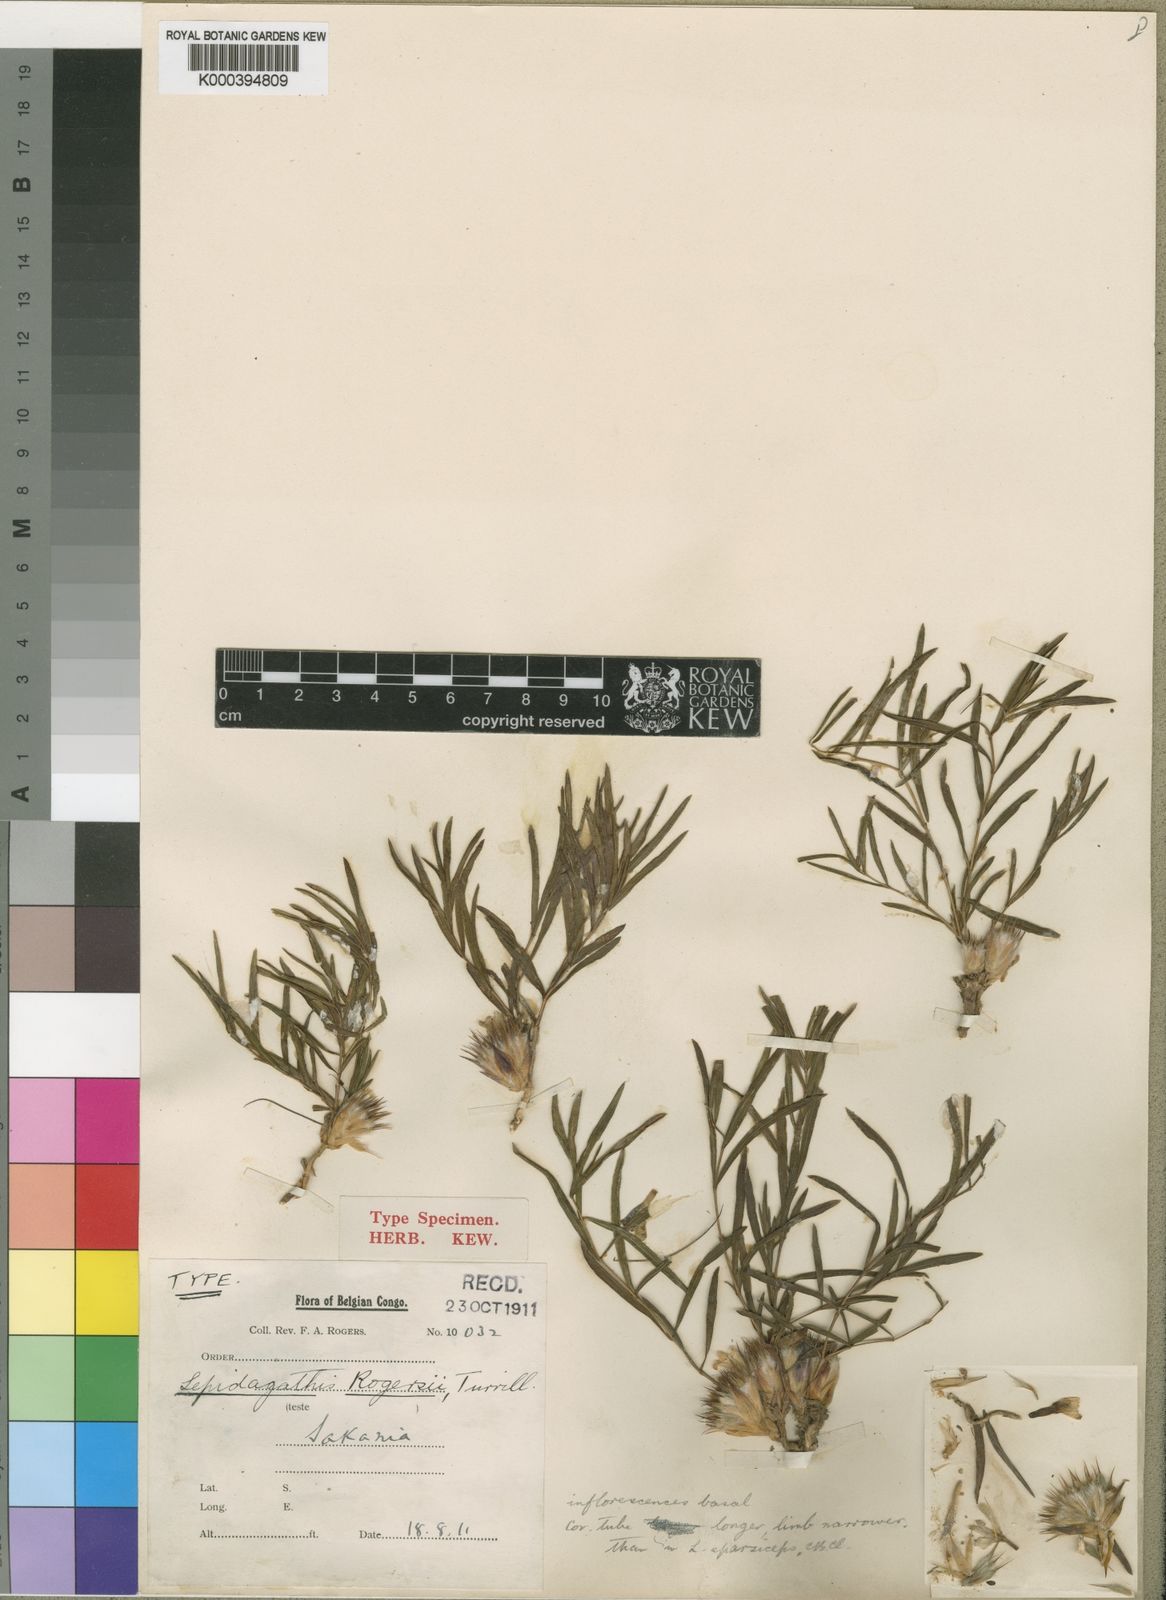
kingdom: Plantae
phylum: Tracheophyta
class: Magnoliopsida
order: Lamiales
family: Acanthaceae
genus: Lepidagathis
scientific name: Lepidagathis fischeri
